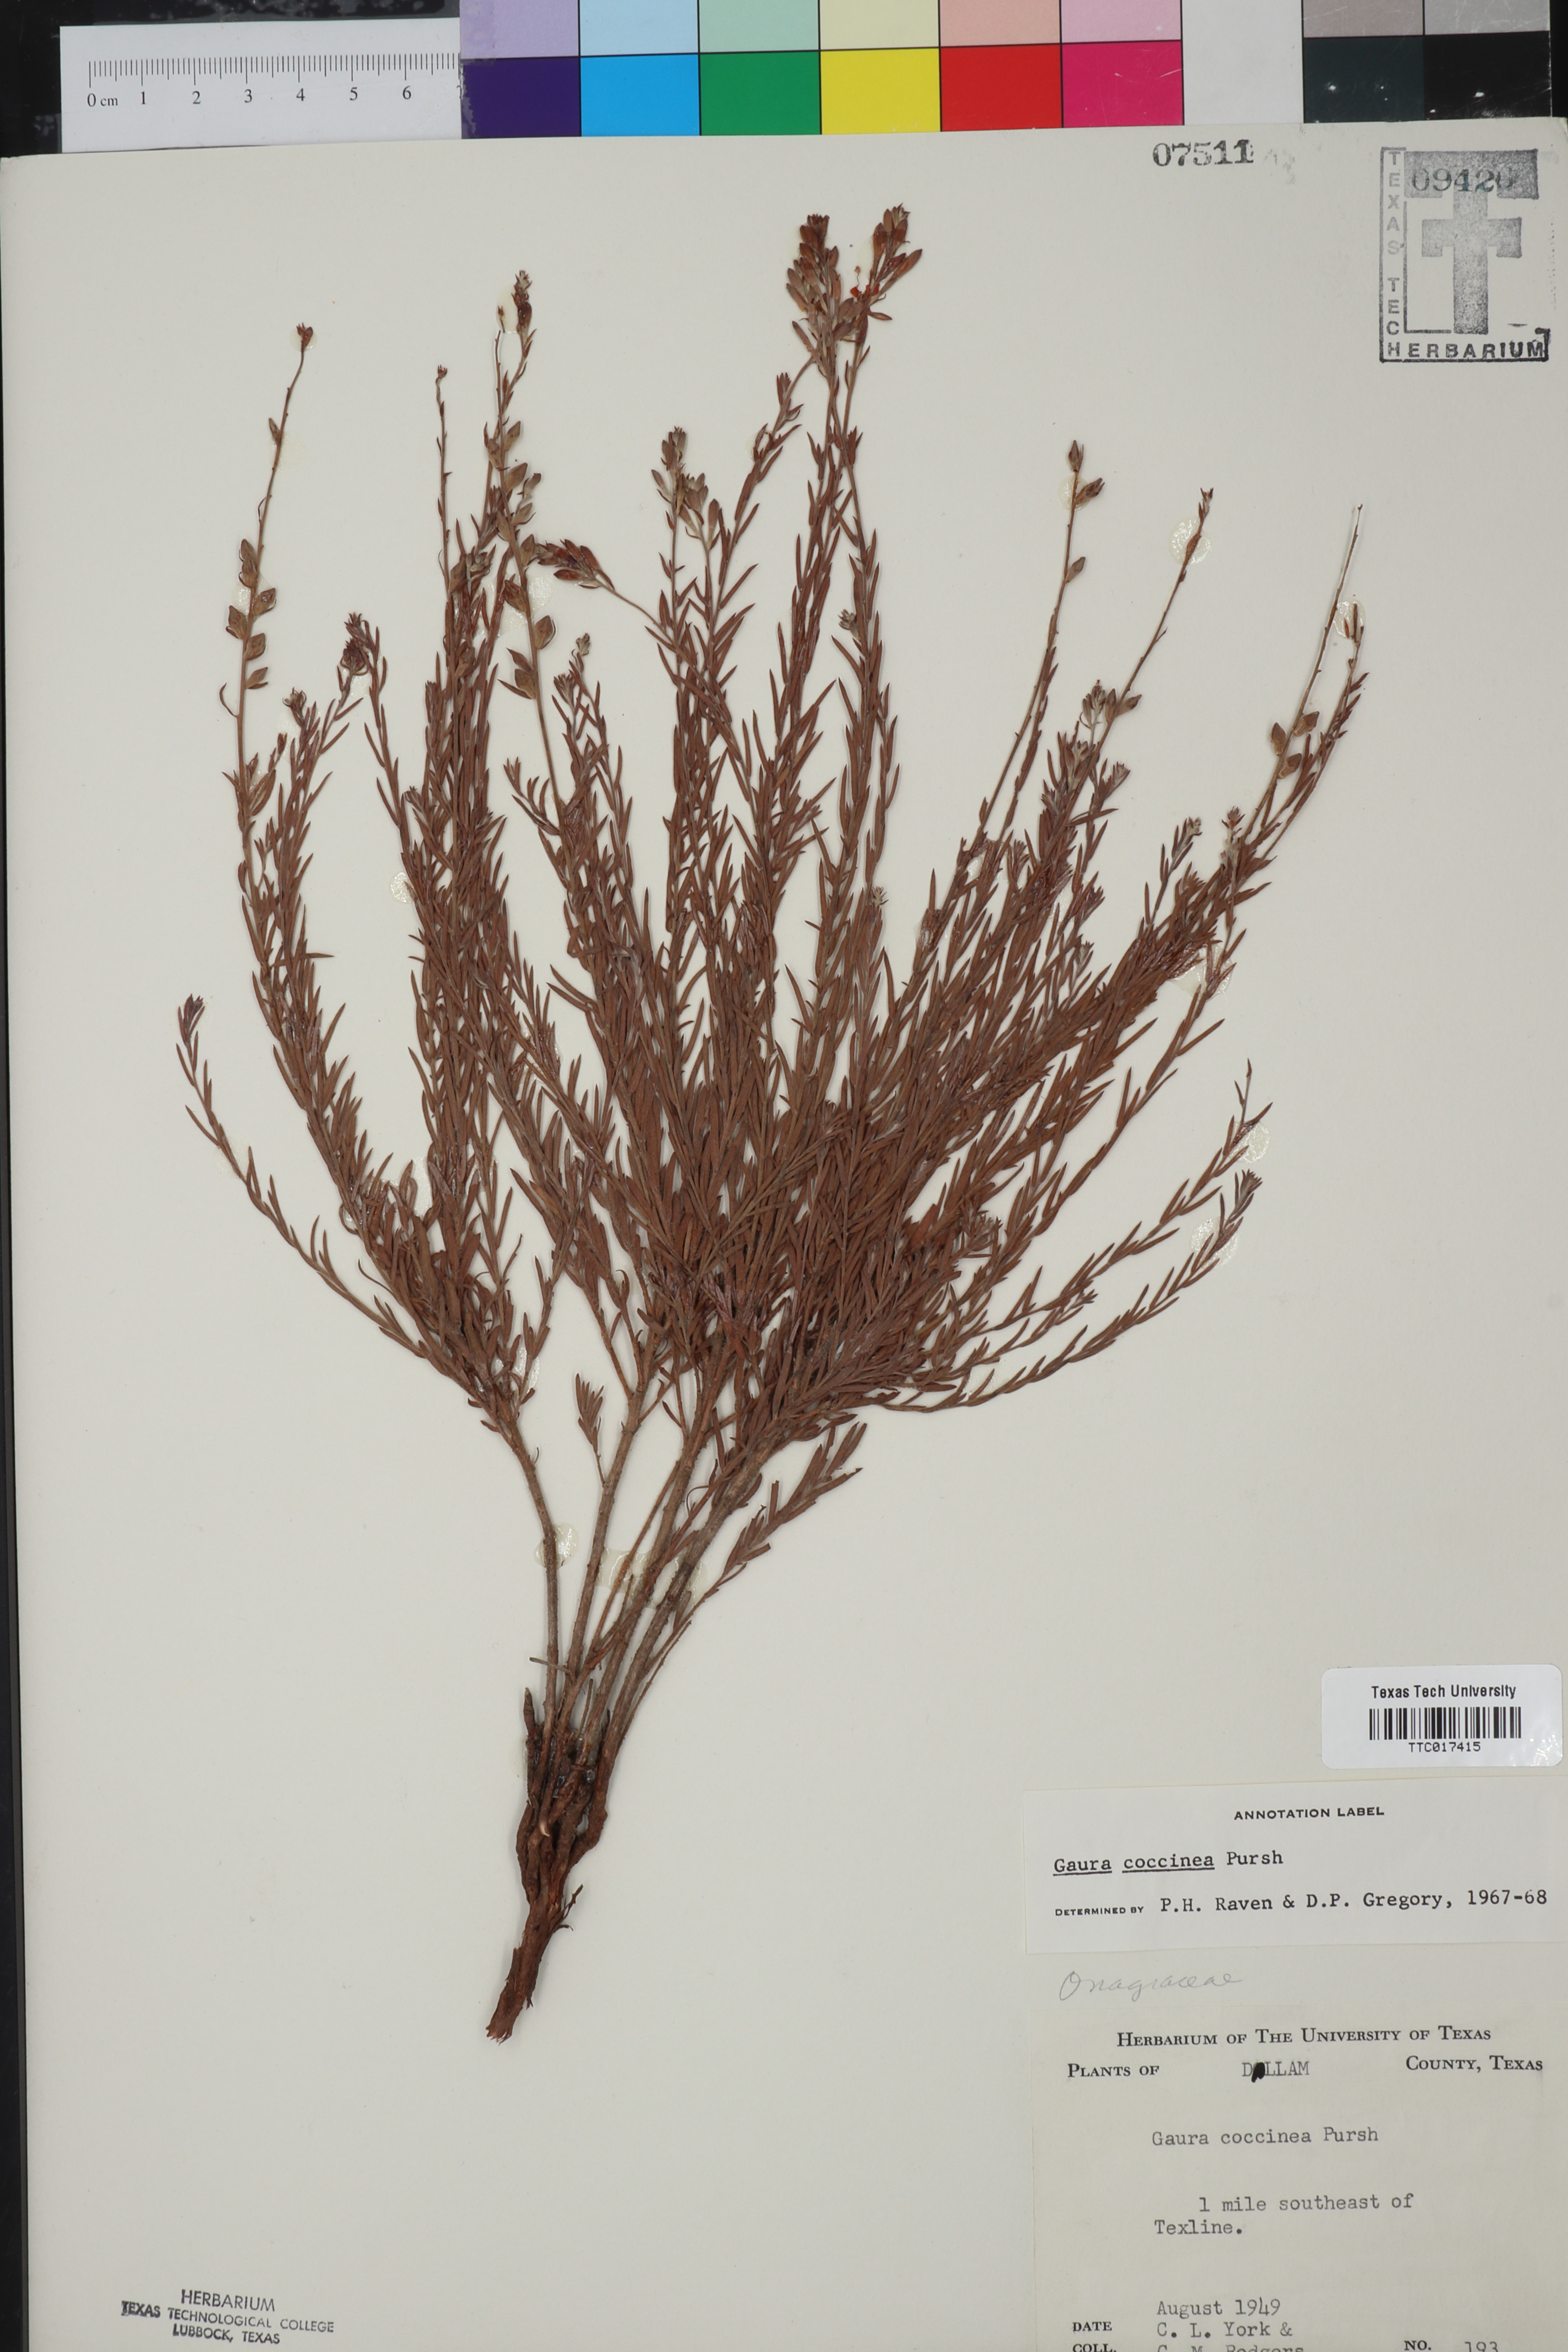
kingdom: Plantae
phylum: Tracheophyta
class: Magnoliopsida
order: Myrtales
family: Onagraceae
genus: Oenothera
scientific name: Oenothera suffrutescens
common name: Scarlet beeblossom
